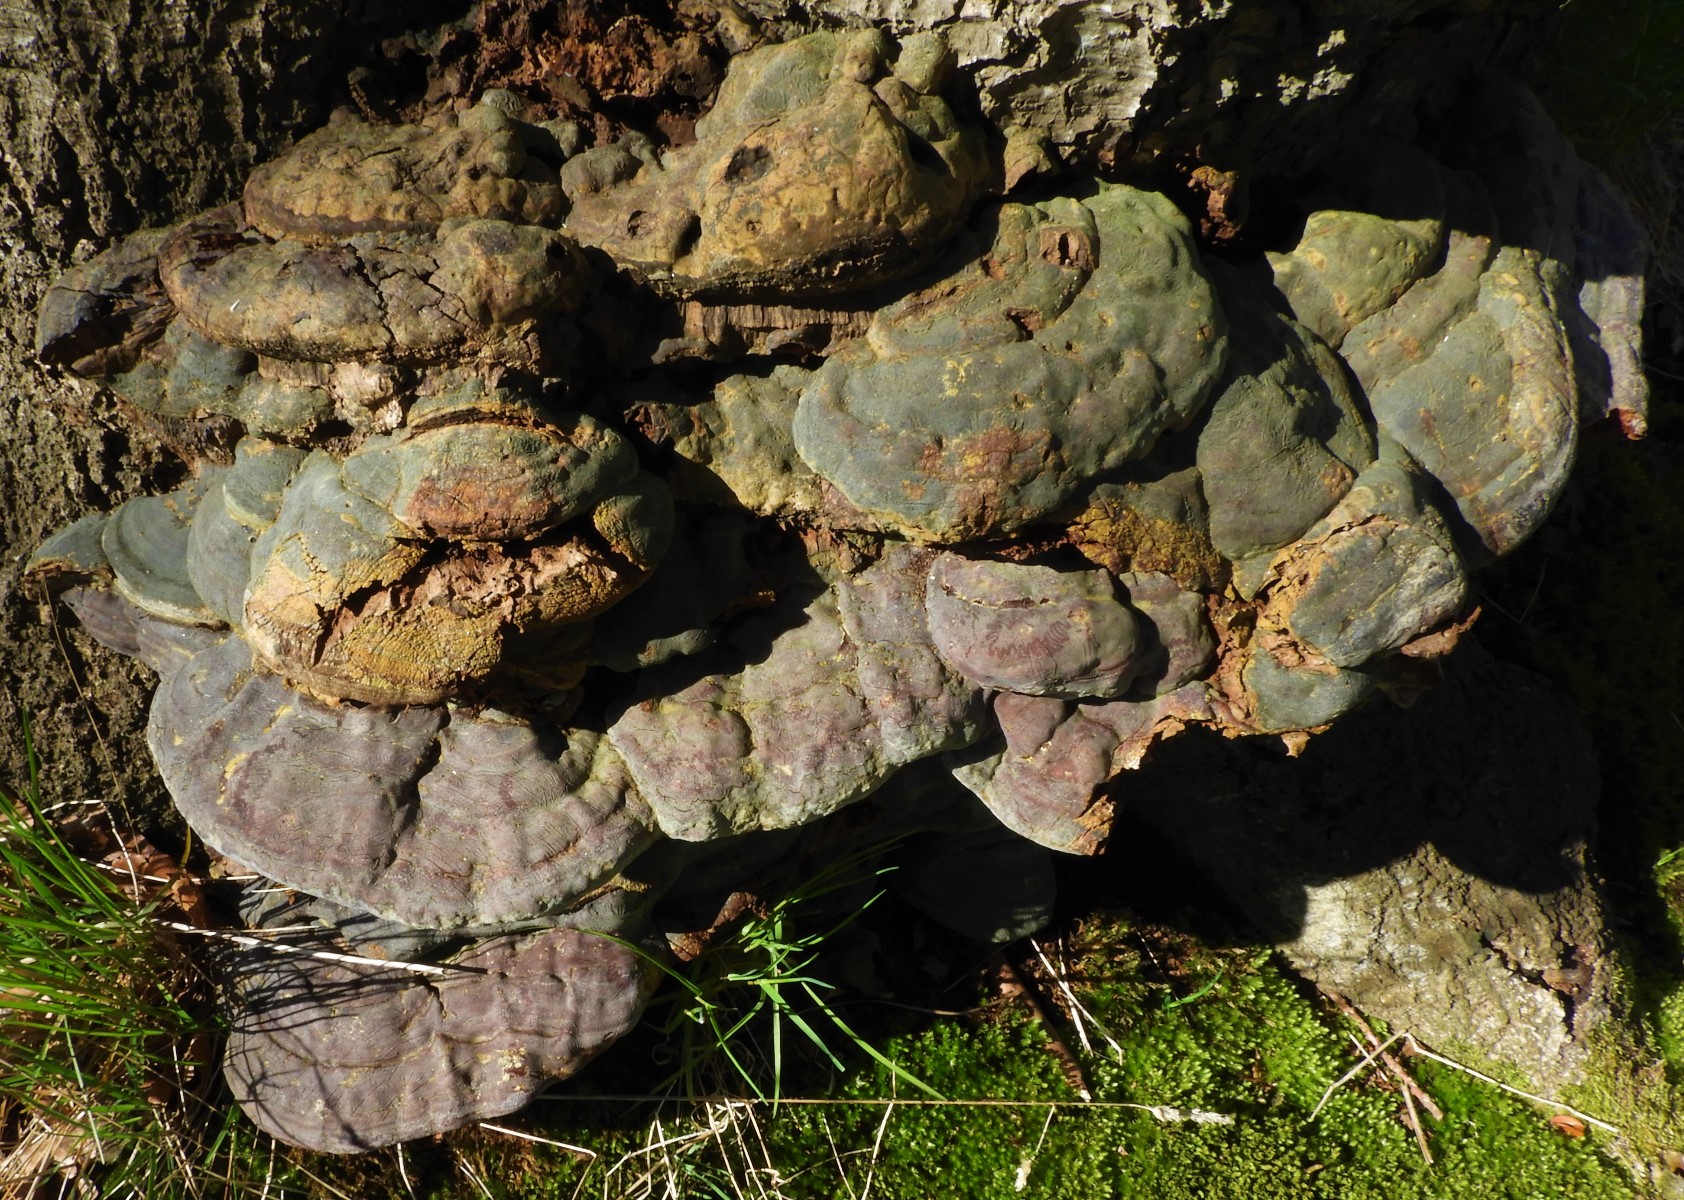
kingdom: Fungi
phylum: Basidiomycota
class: Agaricomycetes
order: Polyporales
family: Polyporaceae
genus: Ganoderma
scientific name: Ganoderma pfeifferi
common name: kobberrød lakporesvamp
